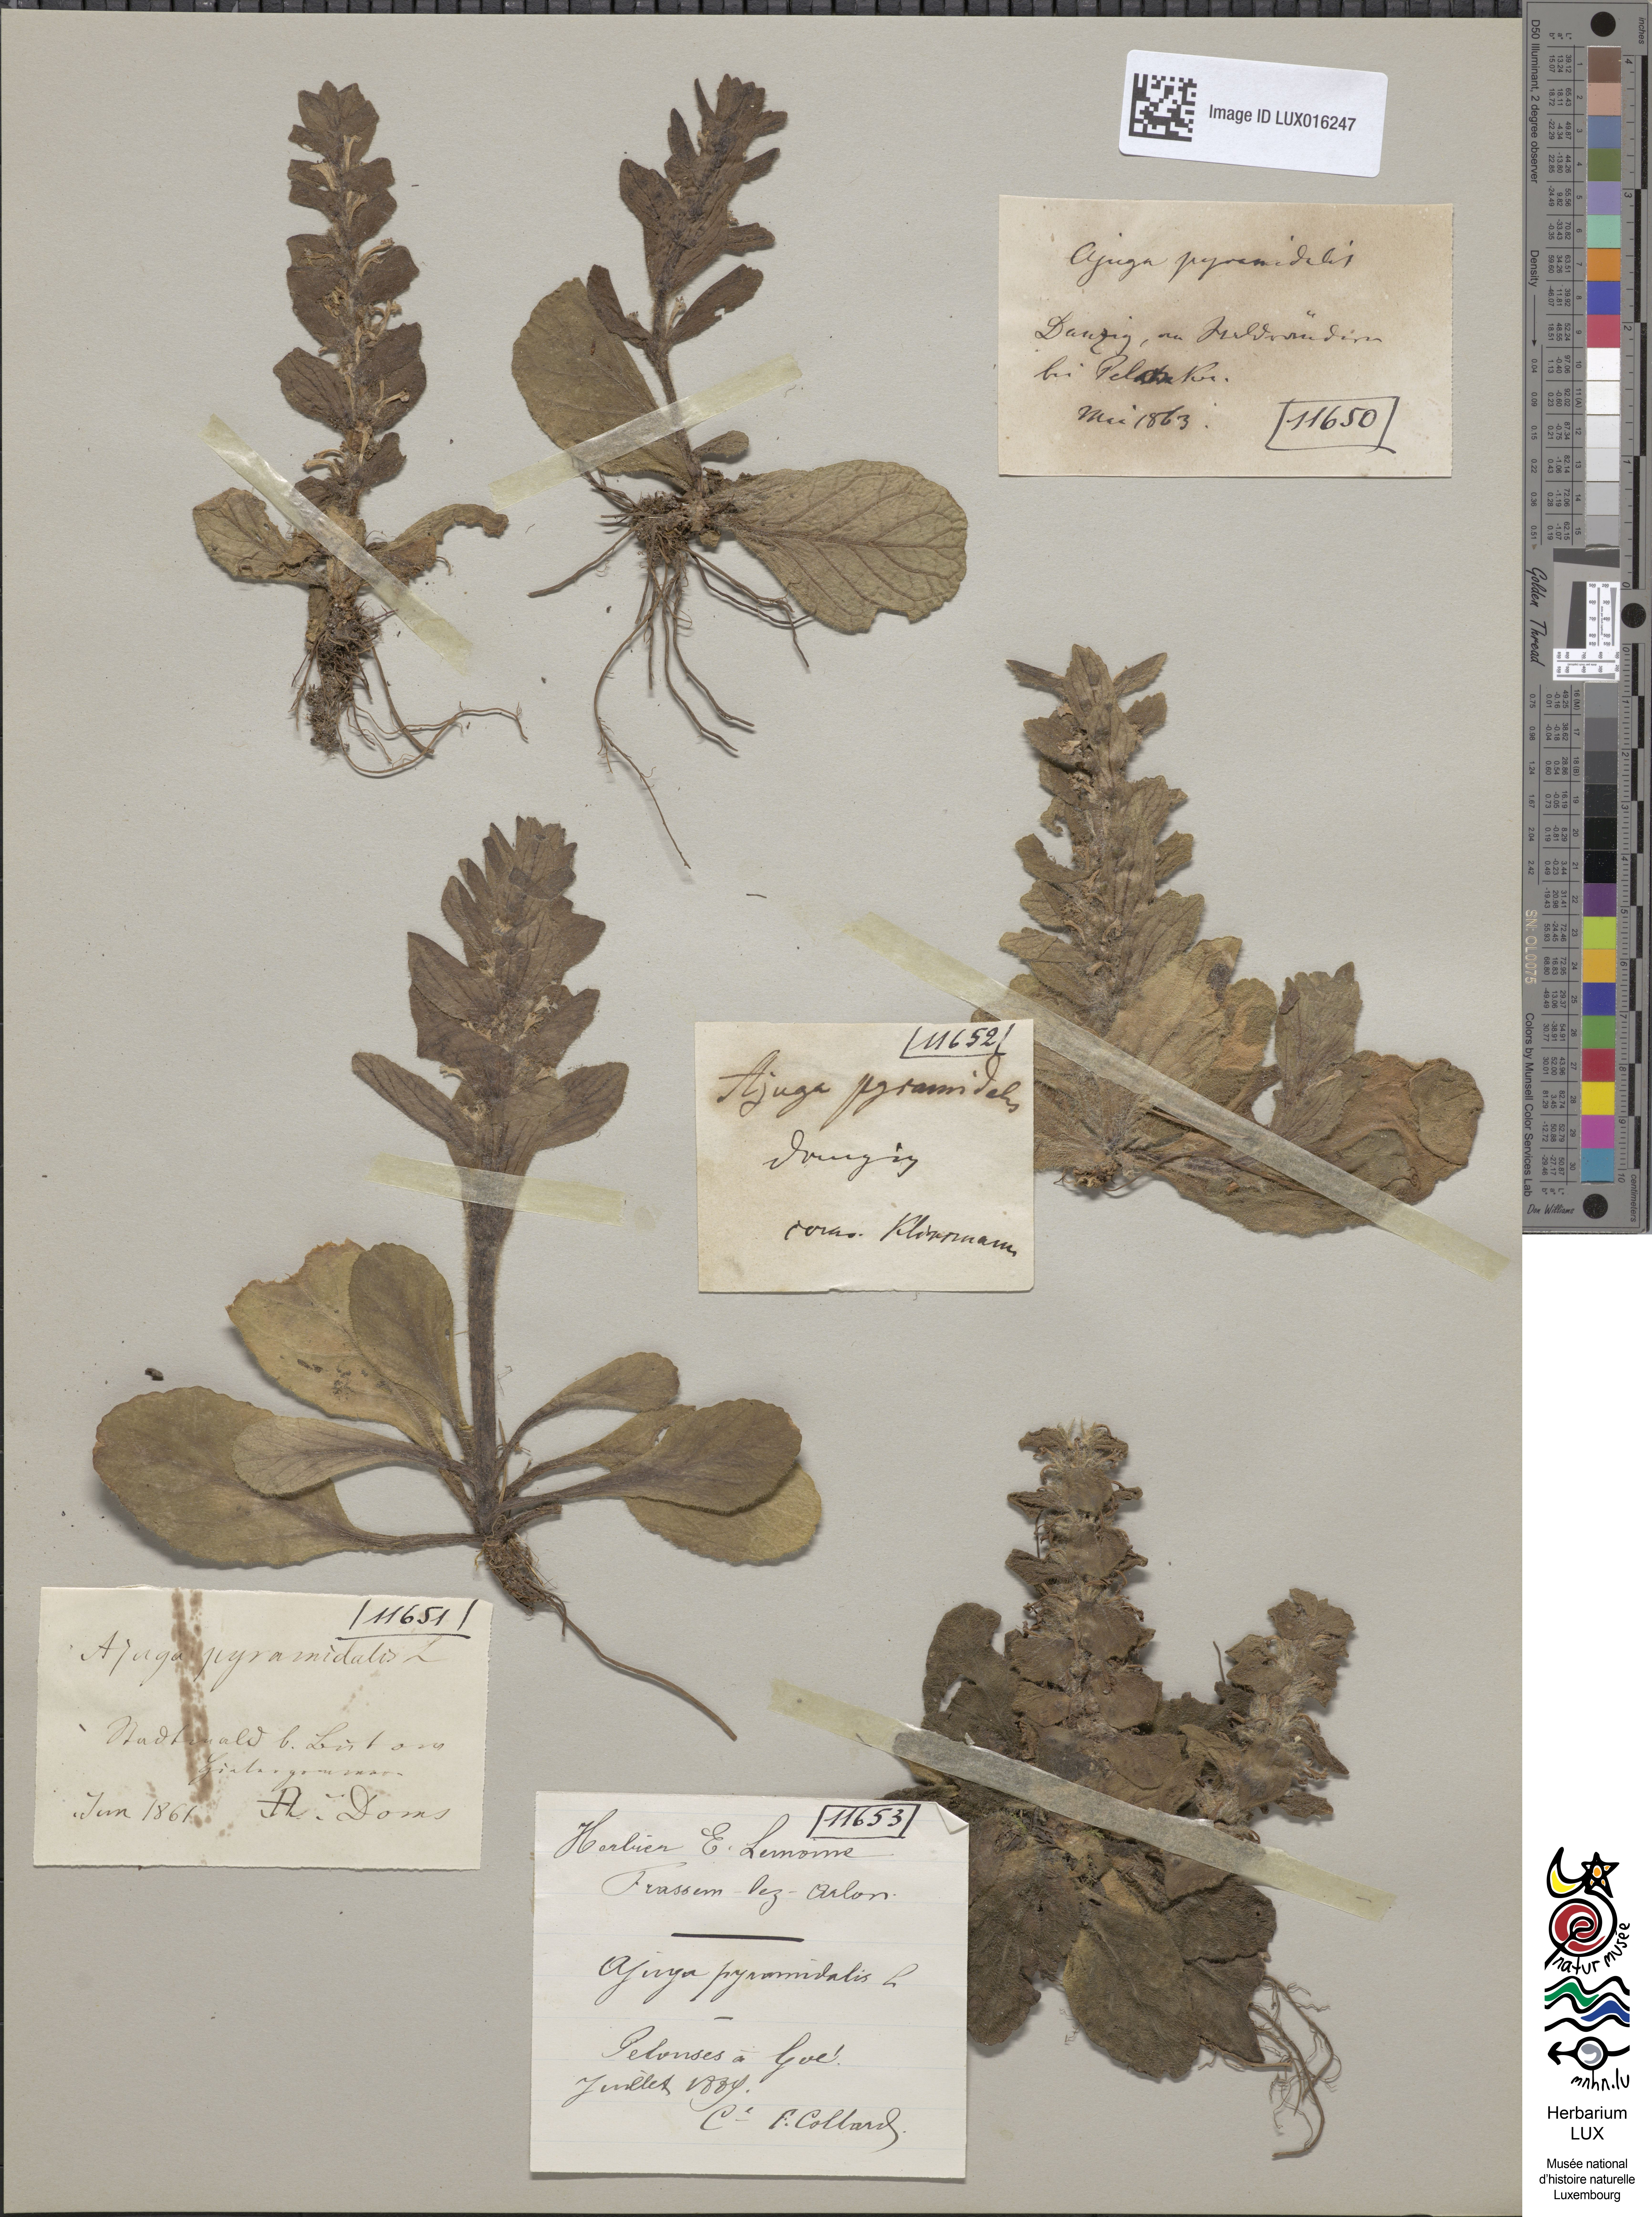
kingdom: Plantae
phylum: Tracheophyta
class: Magnoliopsida
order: Lamiales
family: Lamiaceae
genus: Ajuga
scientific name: Ajuga pyramidalis
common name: Pyramid bugle
